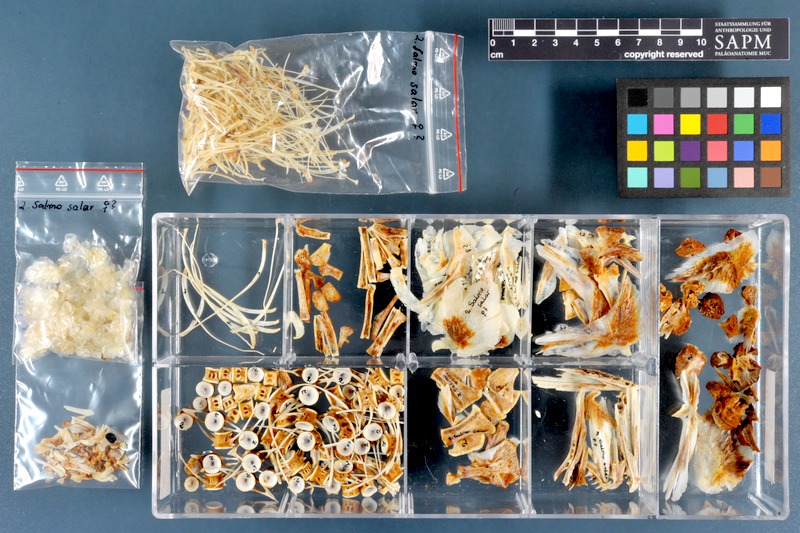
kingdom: Animalia
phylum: Chordata
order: Salmoniformes
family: Salmonidae
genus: Salmo
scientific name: Salmo salar
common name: Atlantic salmon
